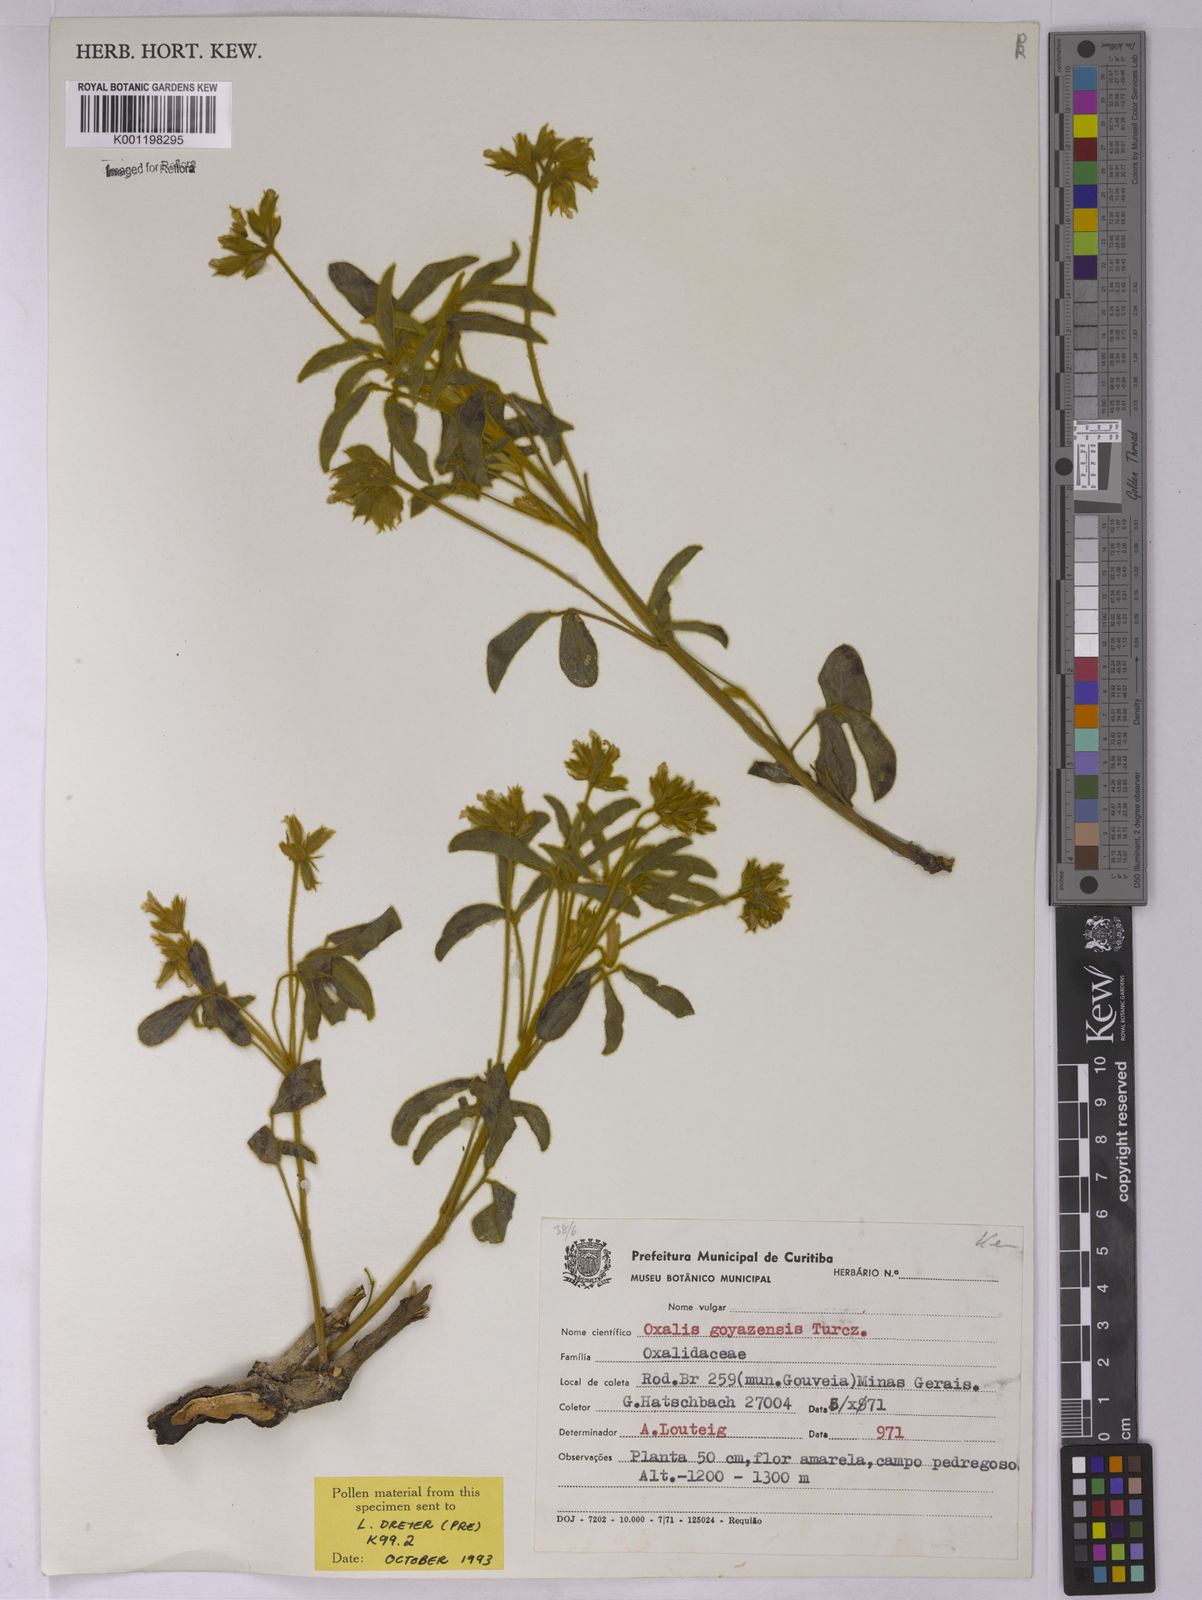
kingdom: Plantae
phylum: Tracheophyta
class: Magnoliopsida
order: Oxalidales
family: Oxalidaceae
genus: Oxalis
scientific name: Oxalis goyazensis
